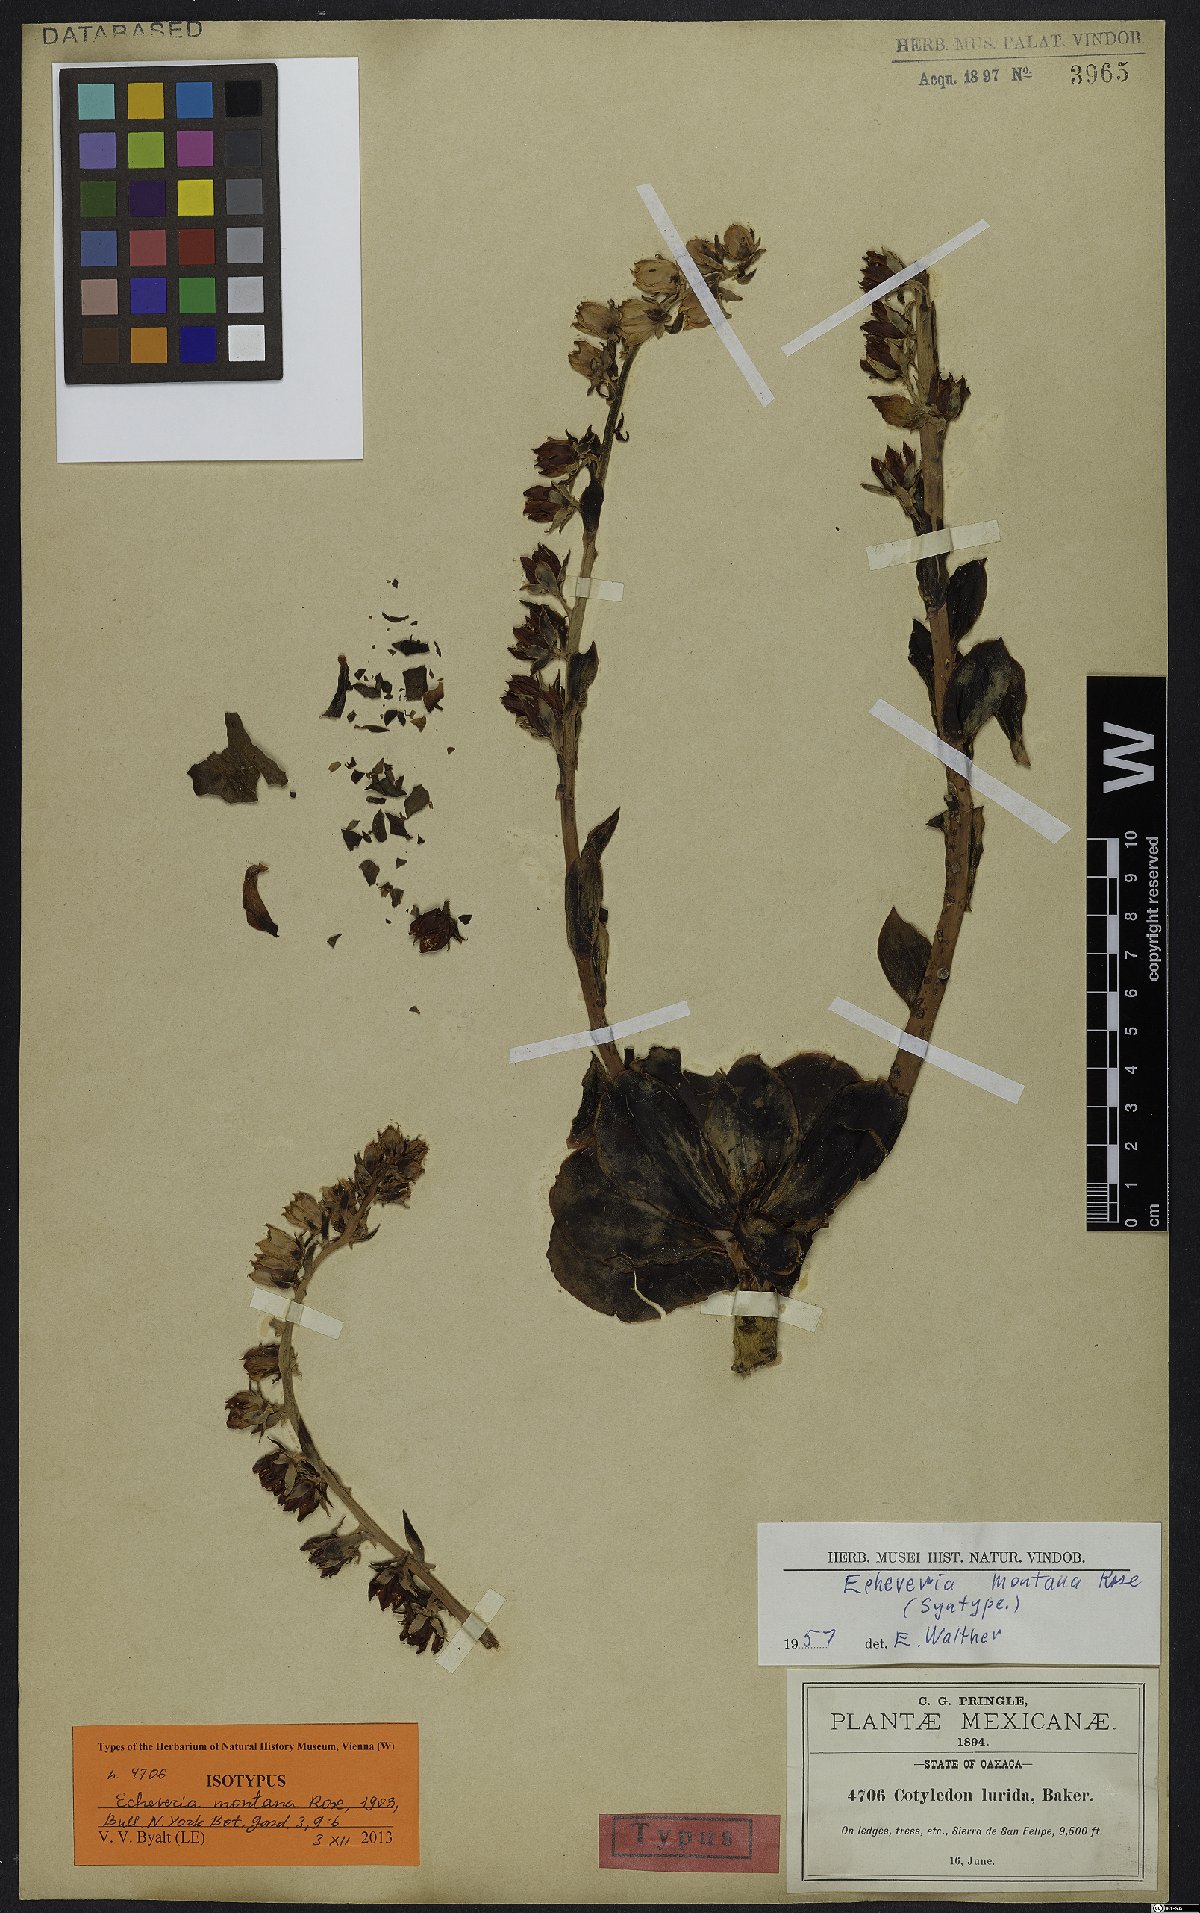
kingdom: Plantae
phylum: Tracheophyta
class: Magnoliopsida
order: Saxifragales
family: Crassulaceae
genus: Echeveria
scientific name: Echeveria montana
